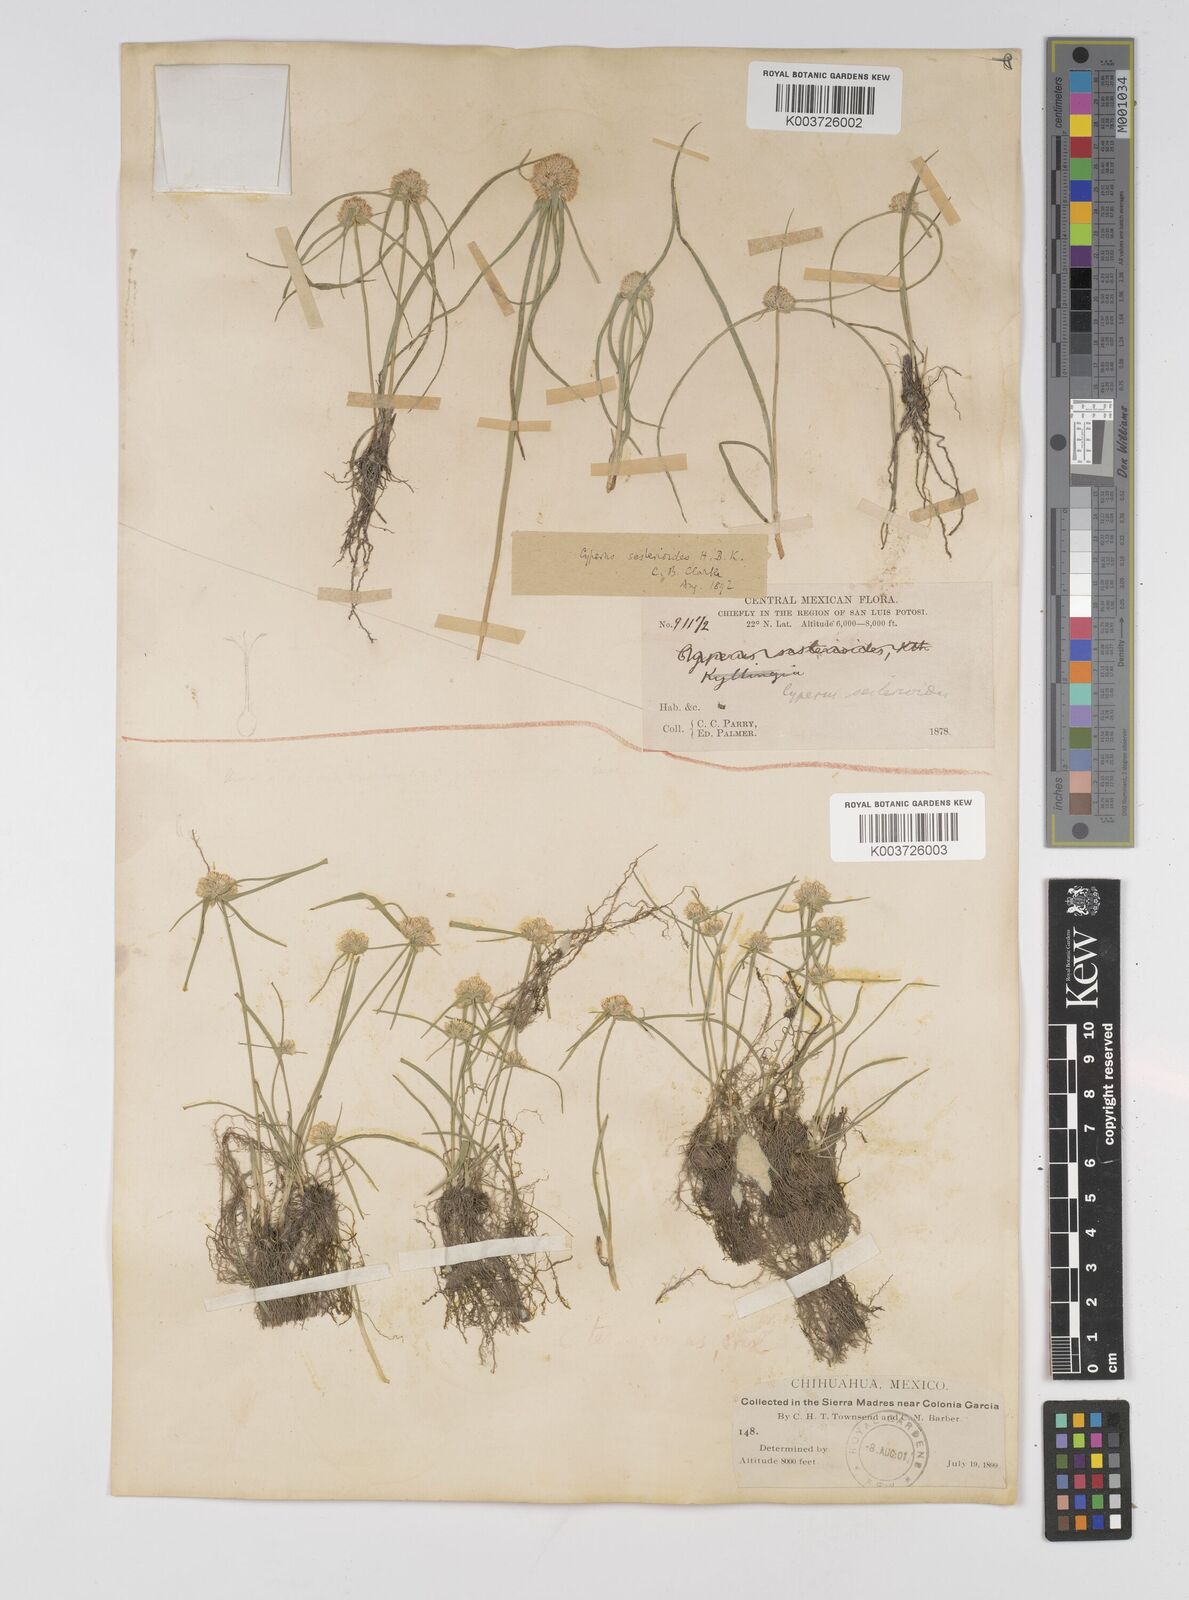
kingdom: Plantae
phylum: Tracheophyta
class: Liliopsida
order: Poales
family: Cyperaceae
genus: Cyperus
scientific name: Cyperus seslerioides
